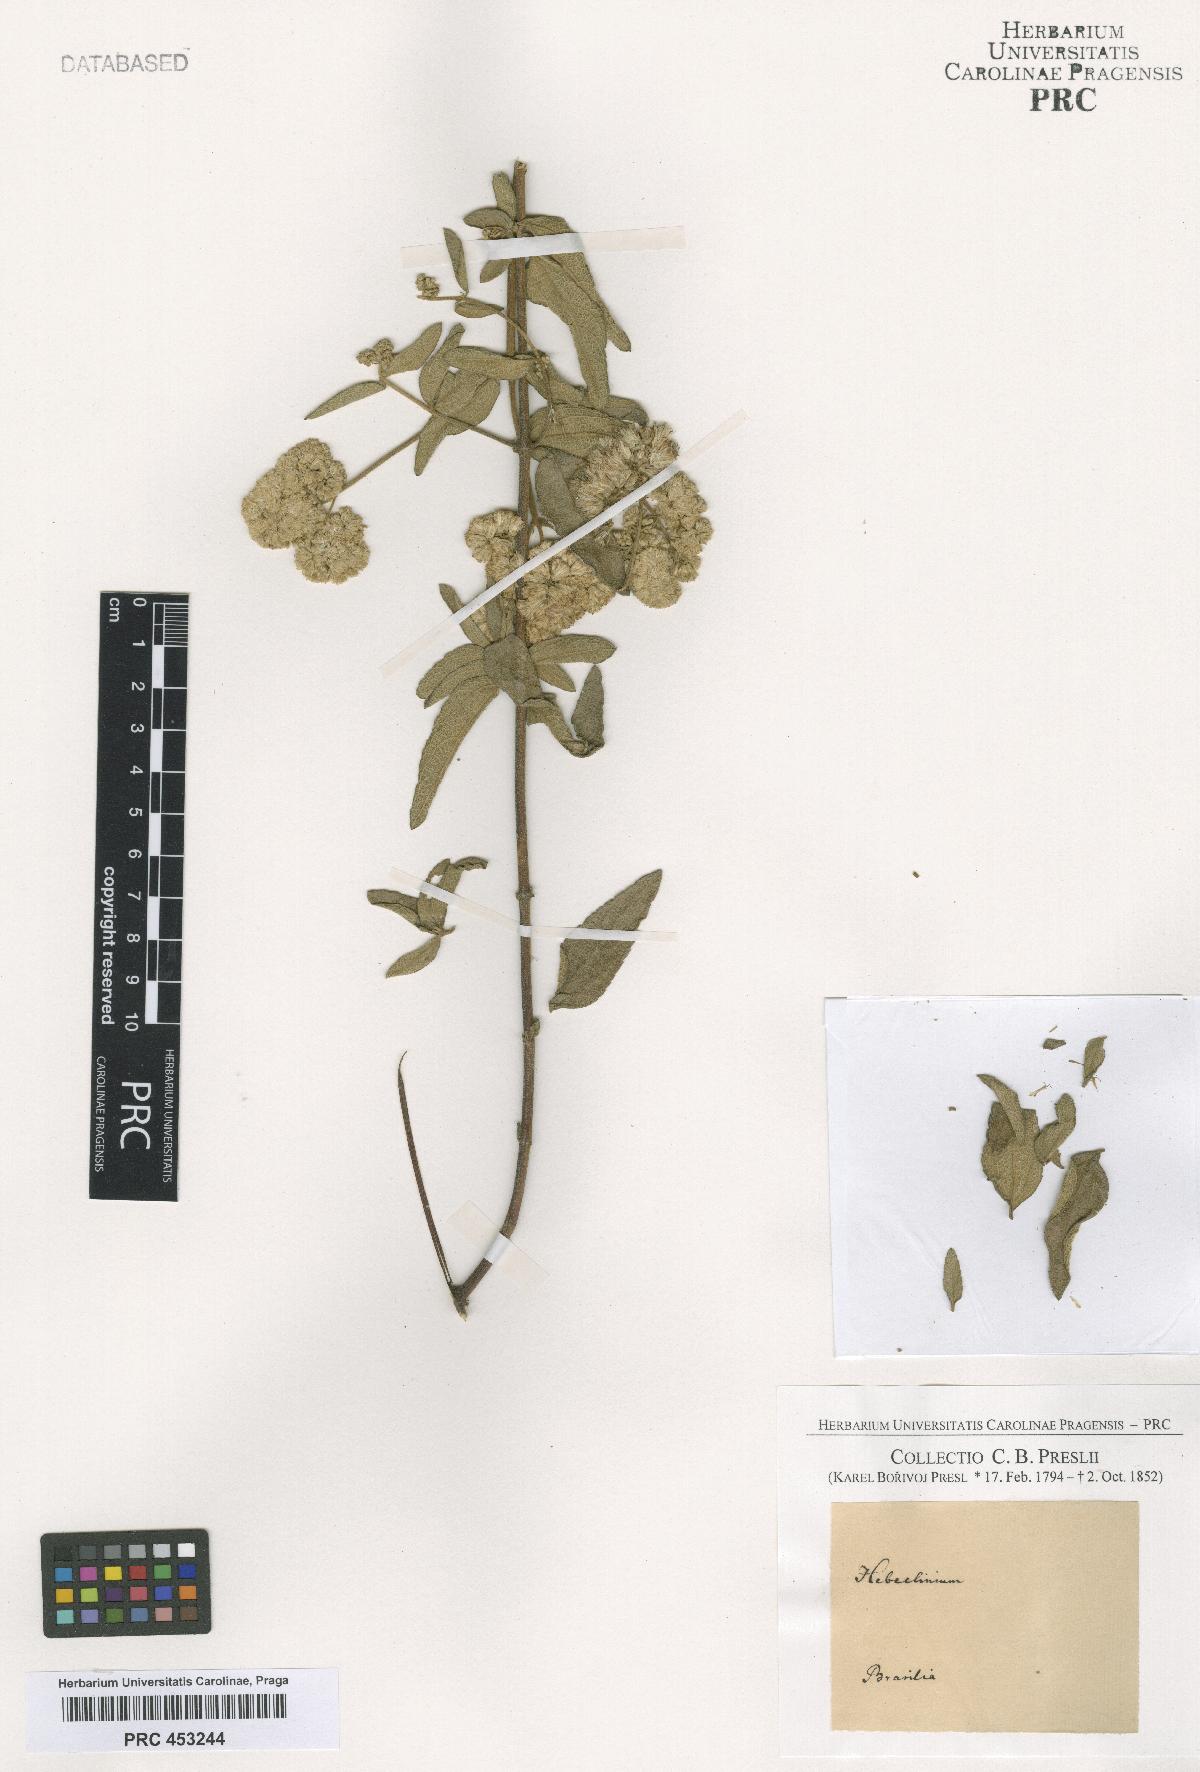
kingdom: Plantae
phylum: Tracheophyta
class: Magnoliopsida
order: Asterales
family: Asteraceae
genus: Hebeclinium
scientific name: Hebeclinium
